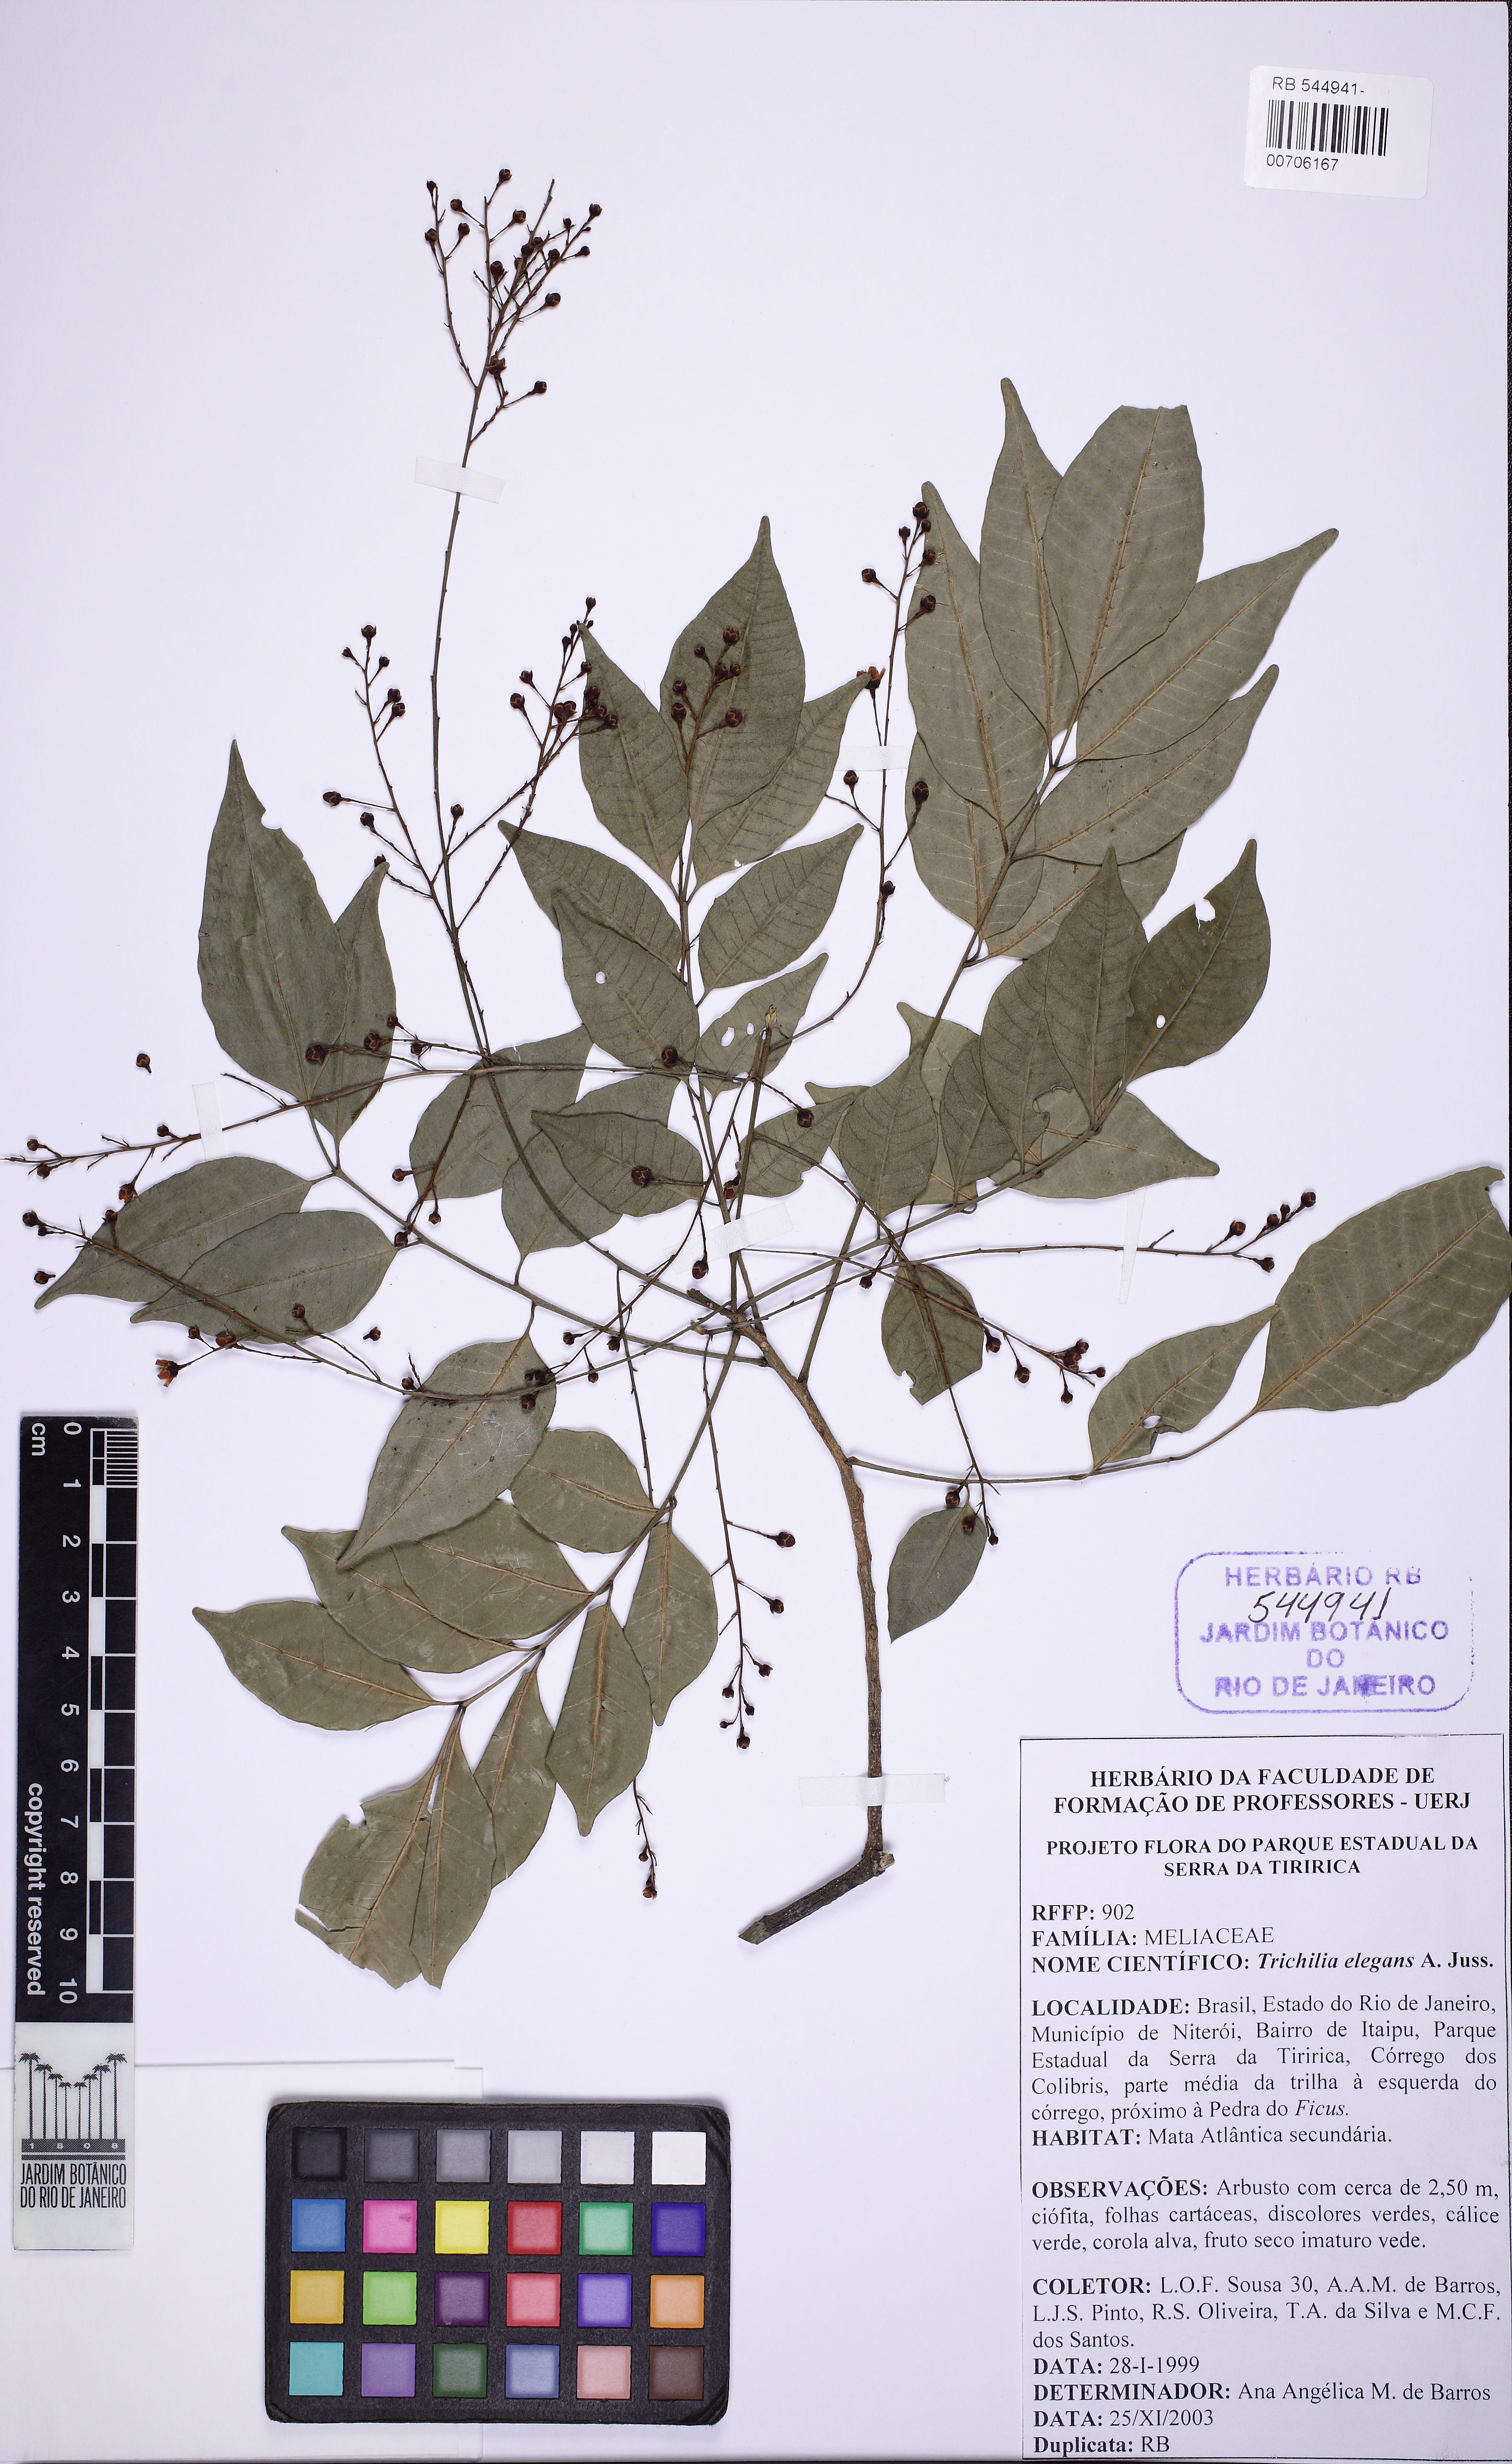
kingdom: Plantae
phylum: Tracheophyta
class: Magnoliopsida
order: Sapindales
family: Meliaceae
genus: Trichilia
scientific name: Trichilia elegans
